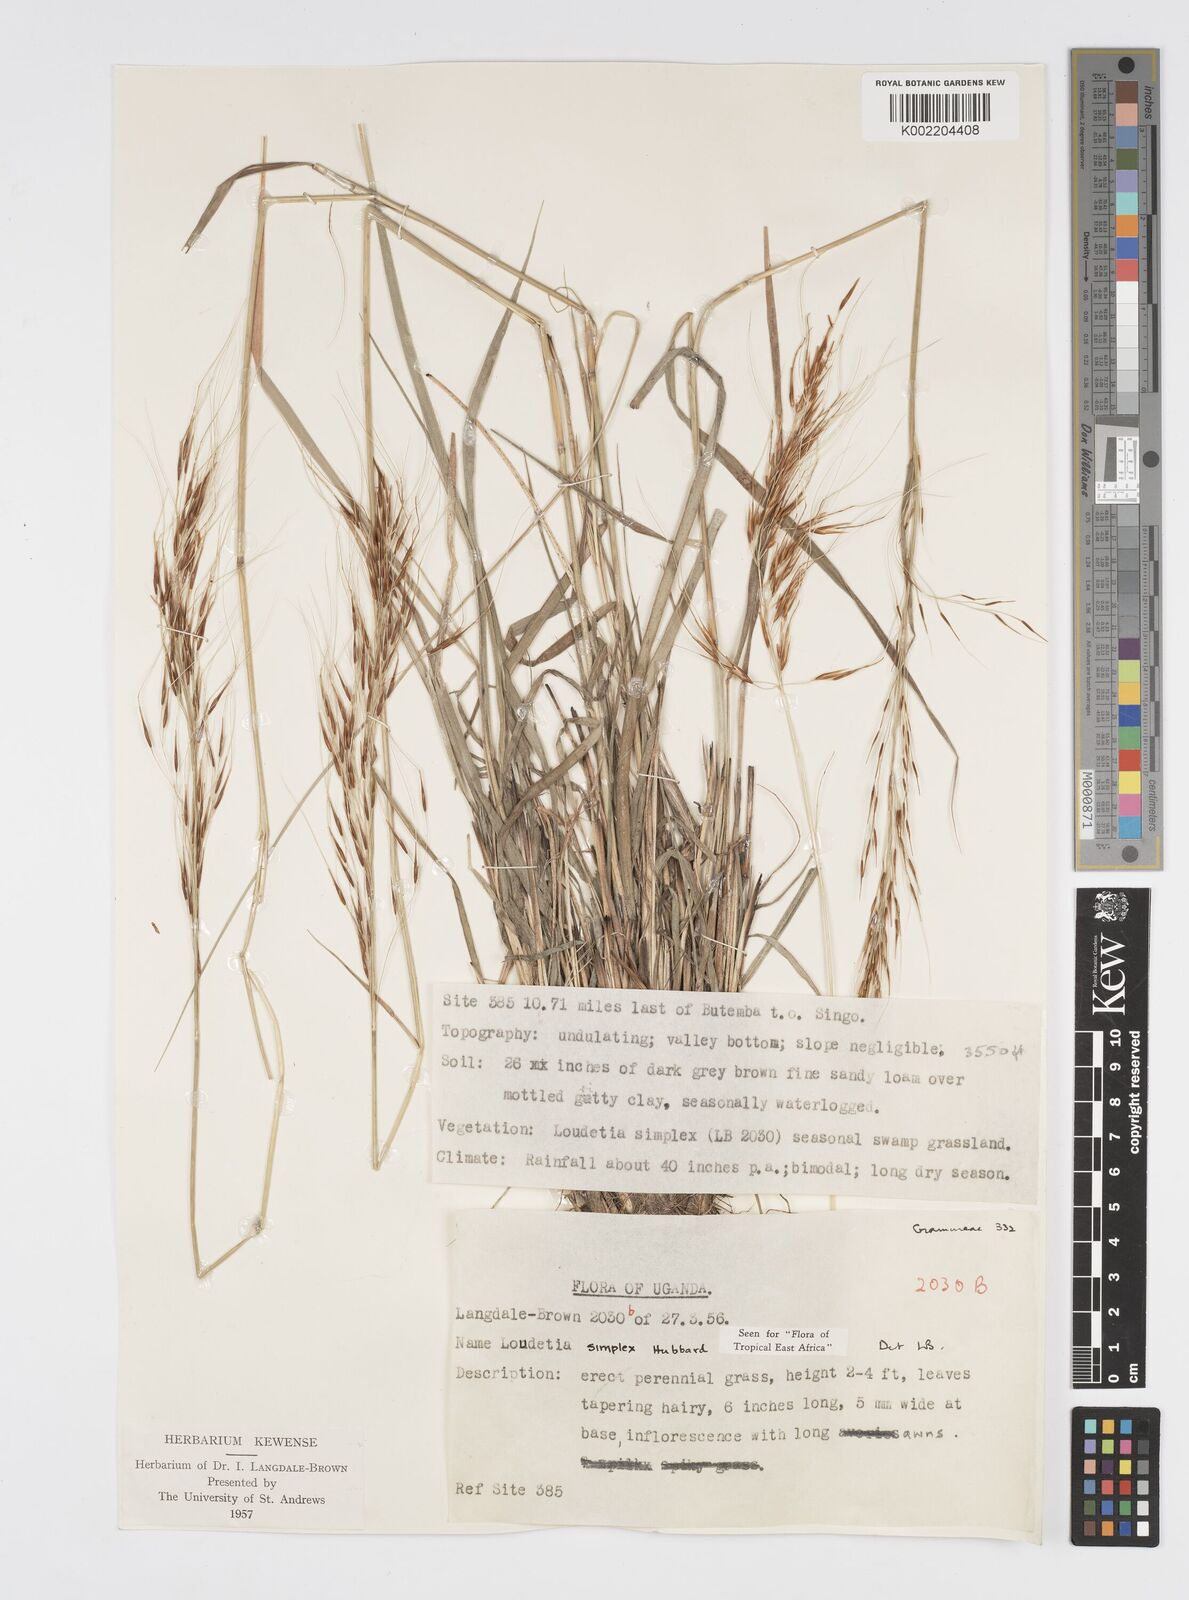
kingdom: Plantae
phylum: Tracheophyta
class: Liliopsida
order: Poales
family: Poaceae
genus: Loudetia
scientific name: Loudetia simplex
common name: Common russet grass
